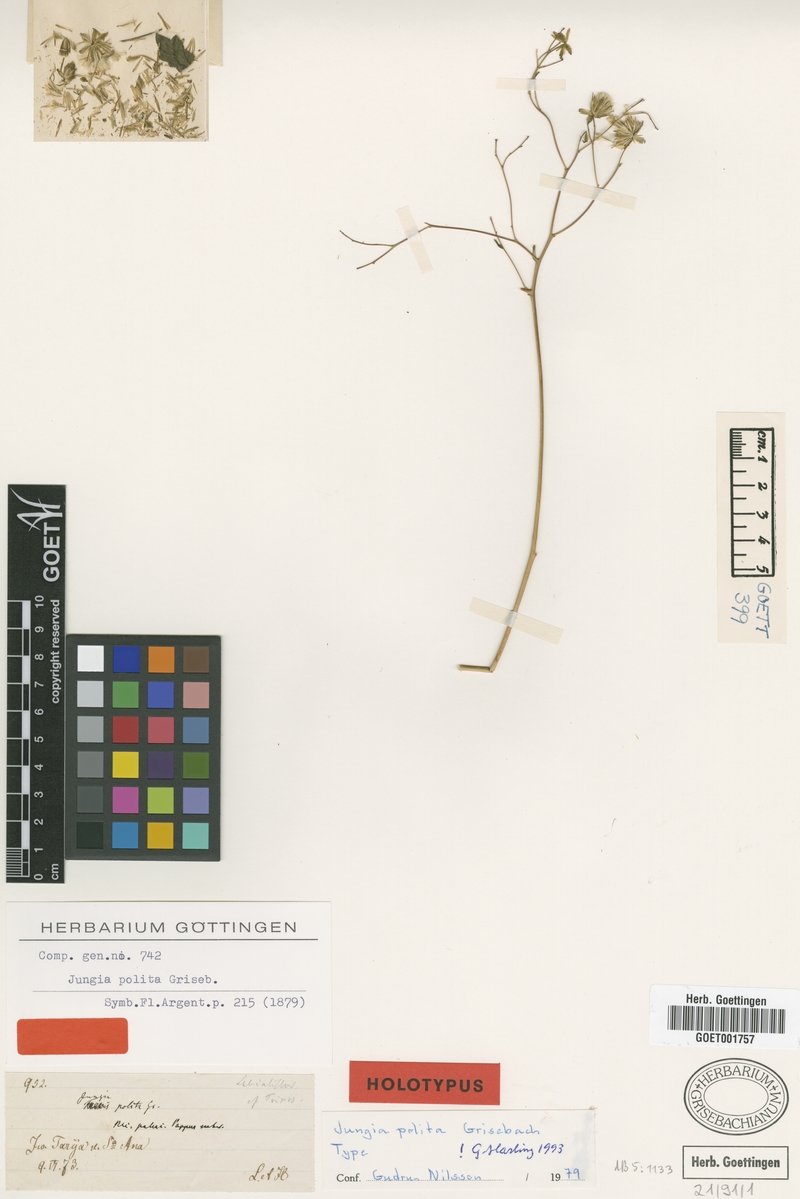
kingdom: Plantae
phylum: Tracheophyta
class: Magnoliopsida
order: Asterales
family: Asteraceae
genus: Jungia
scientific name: Jungia polita
